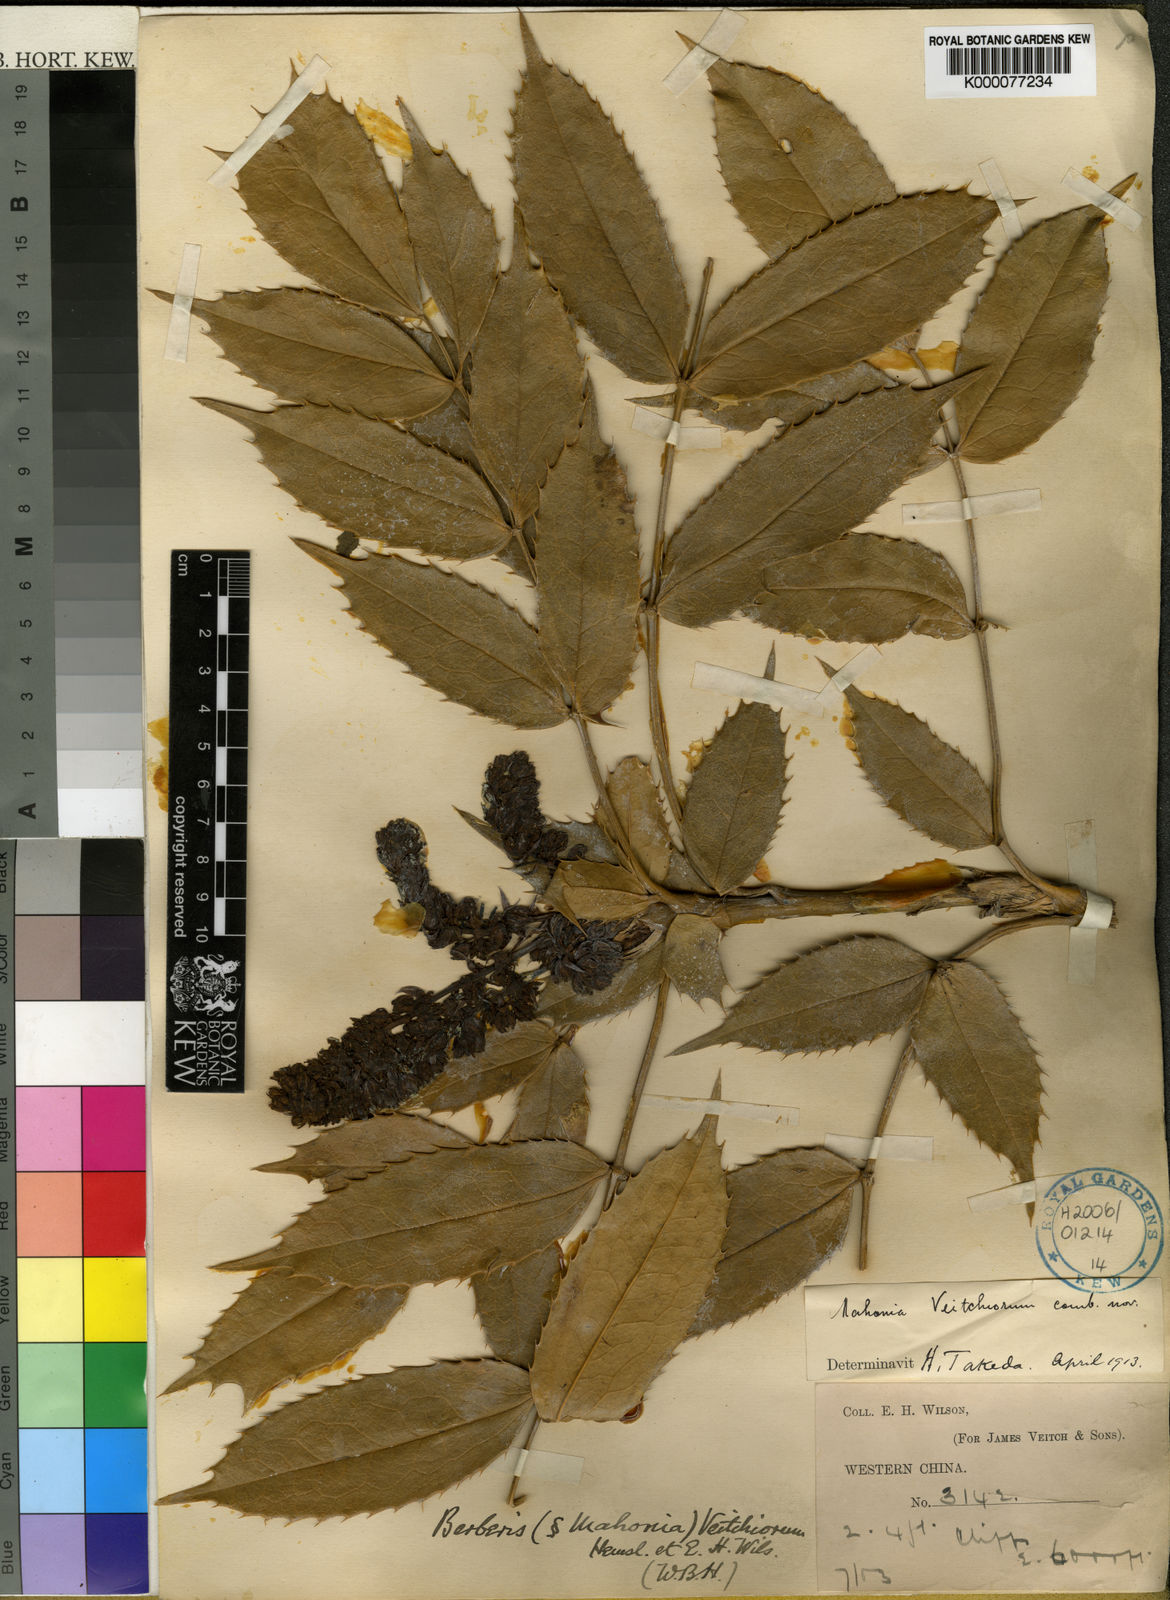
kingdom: Plantae
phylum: Tracheophyta
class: Magnoliopsida
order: Ranunculales
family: Berberidaceae
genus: Mahonia
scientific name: Mahonia polyodonta
